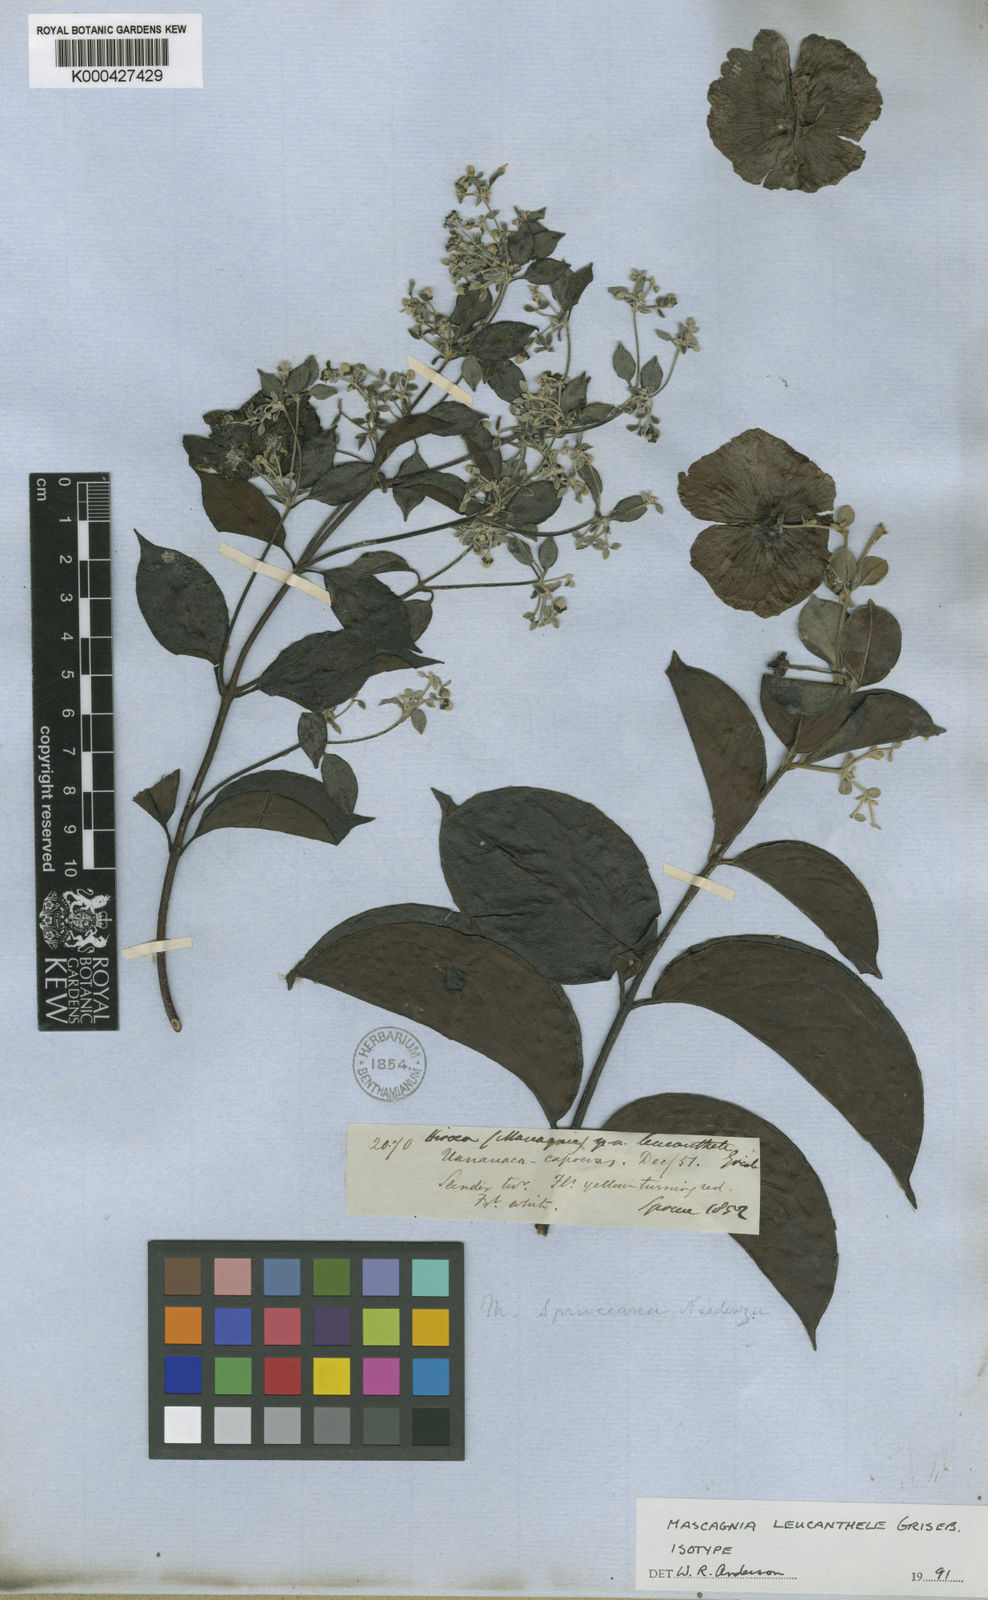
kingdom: Plantae
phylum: Tracheophyta
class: Magnoliopsida
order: Malpighiales
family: Malpighiaceae
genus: Malpighiodes
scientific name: Malpighiodes leucanthele
